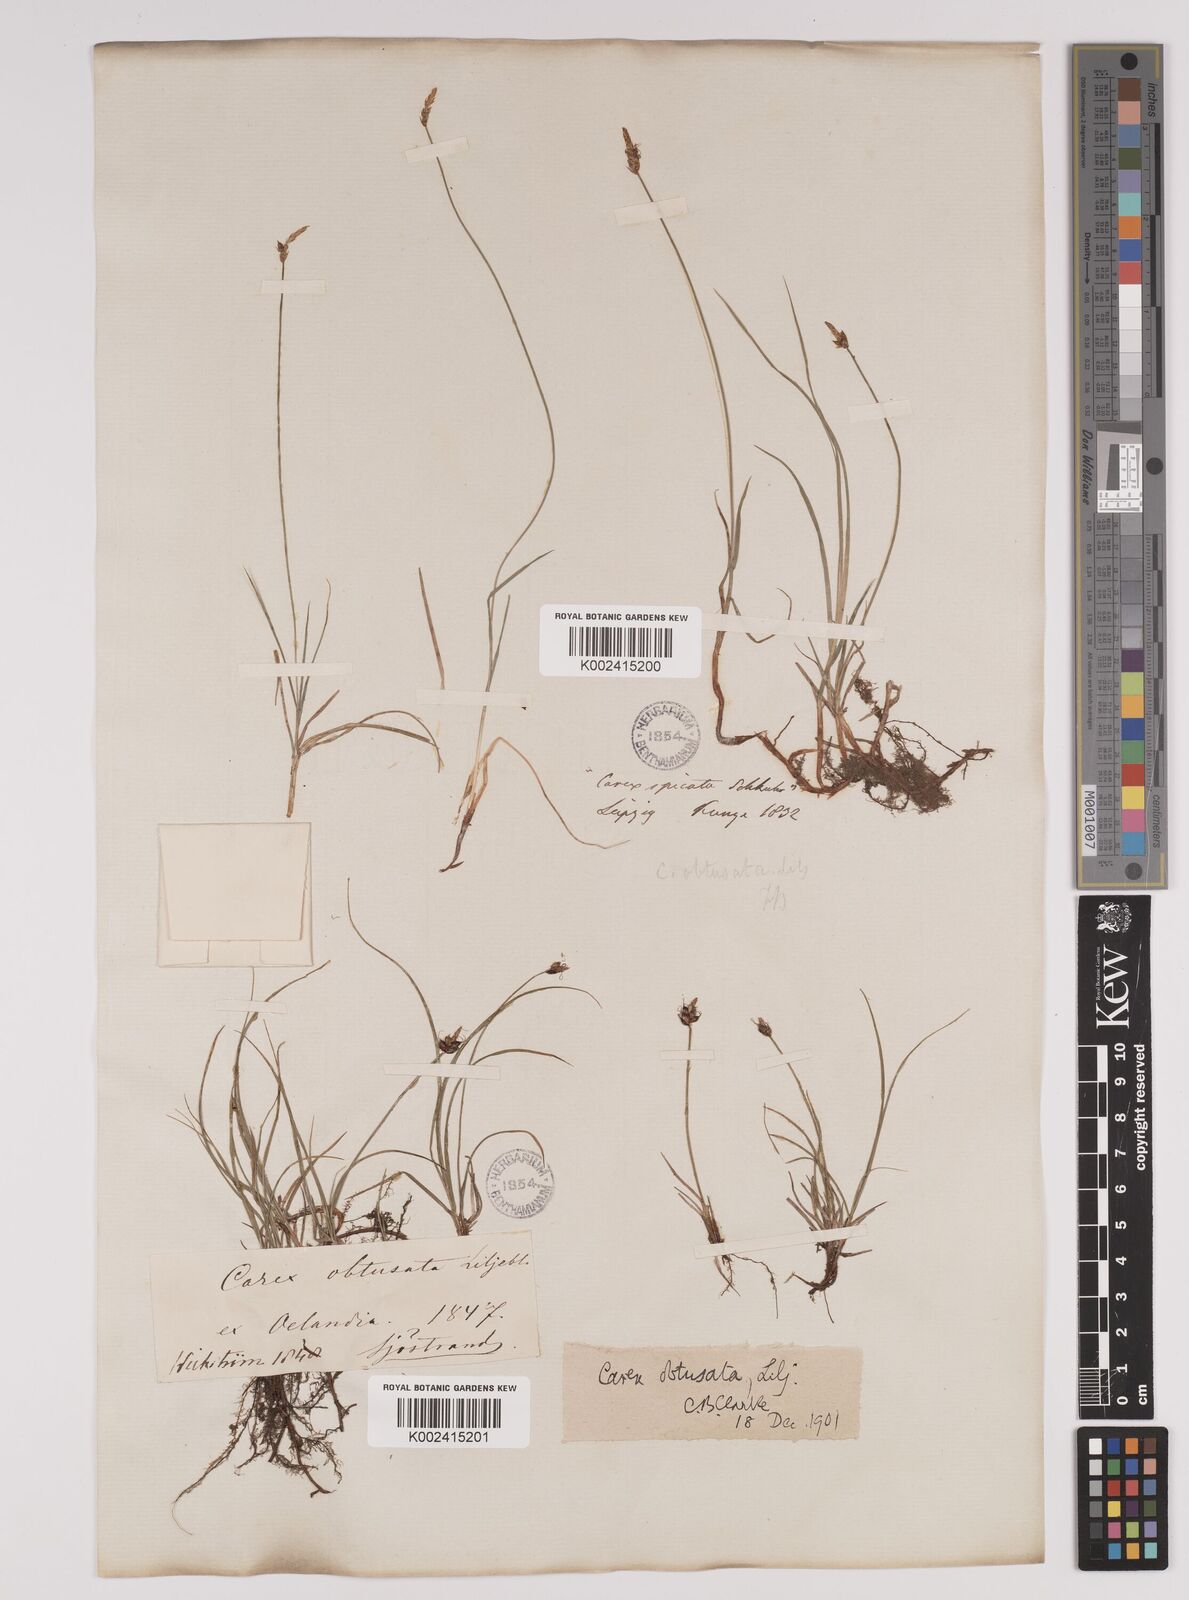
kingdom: Plantae
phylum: Tracheophyta
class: Liliopsida
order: Poales
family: Cyperaceae
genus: Carex
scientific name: Carex obtusata
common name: Blunt sedge
